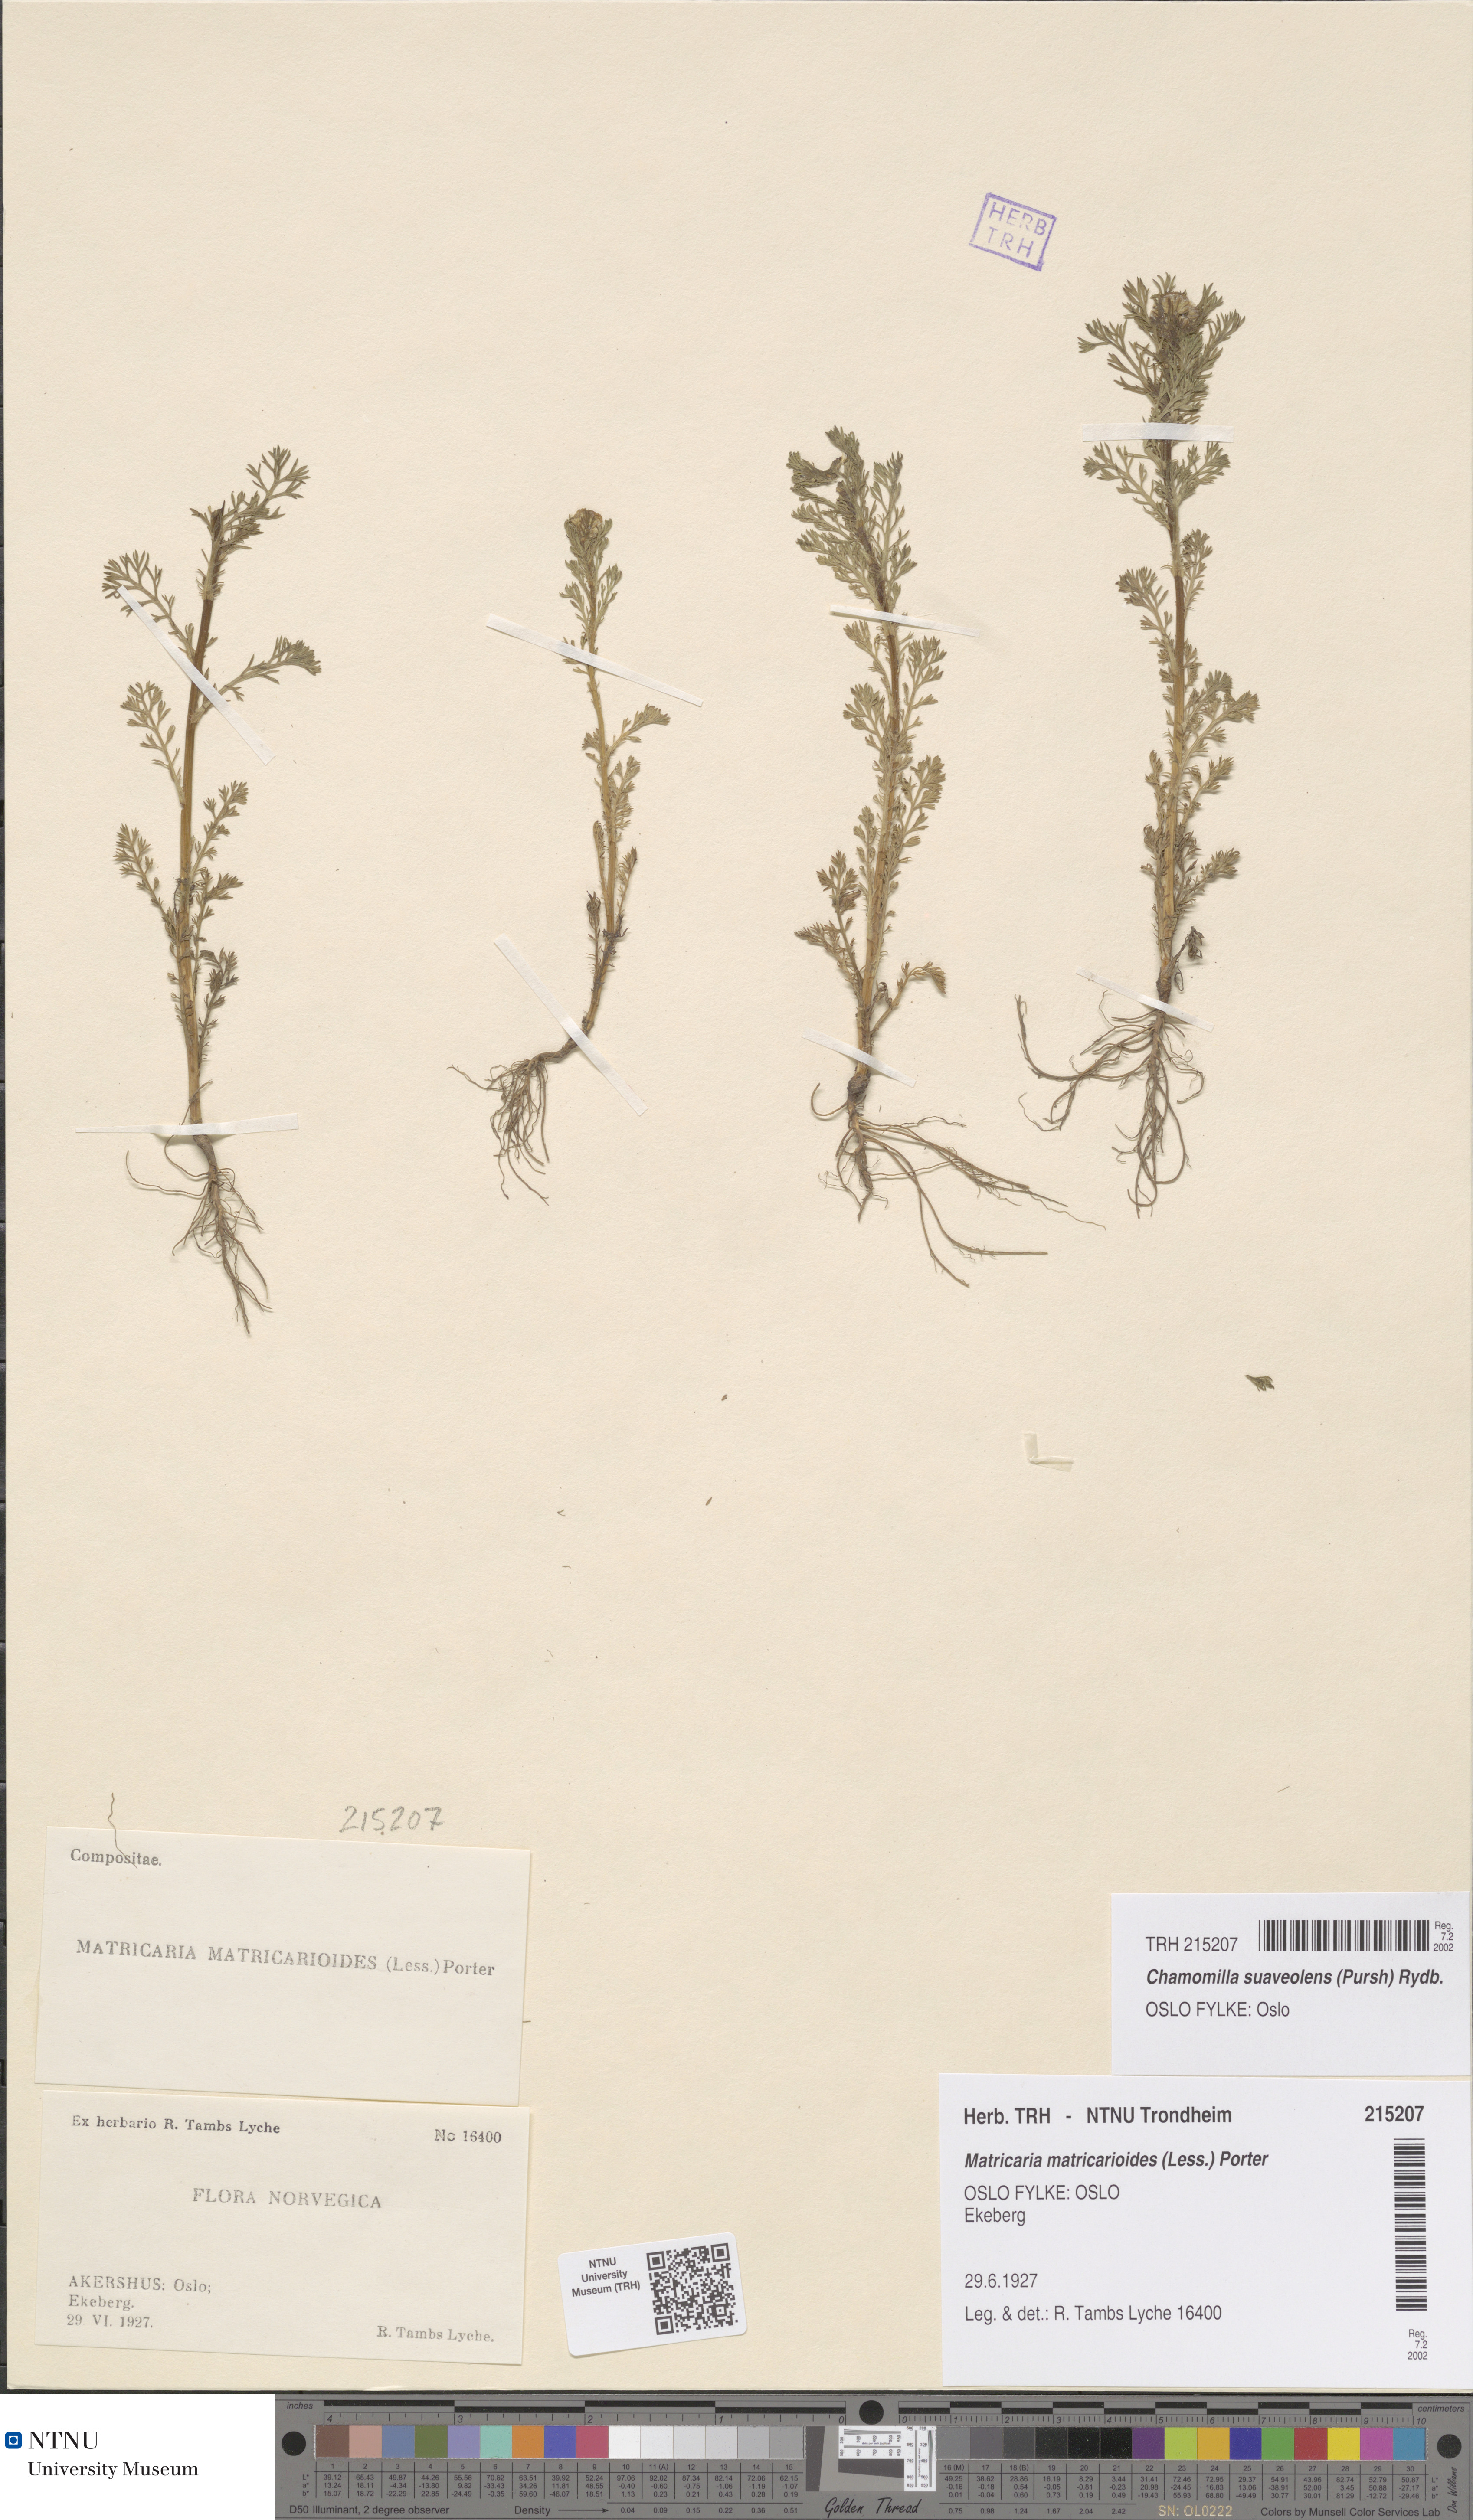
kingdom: Plantae
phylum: Tracheophyta
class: Magnoliopsida
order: Asterales
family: Asteraceae
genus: Matricaria
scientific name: Matricaria discoidea
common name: Disc mayweed
